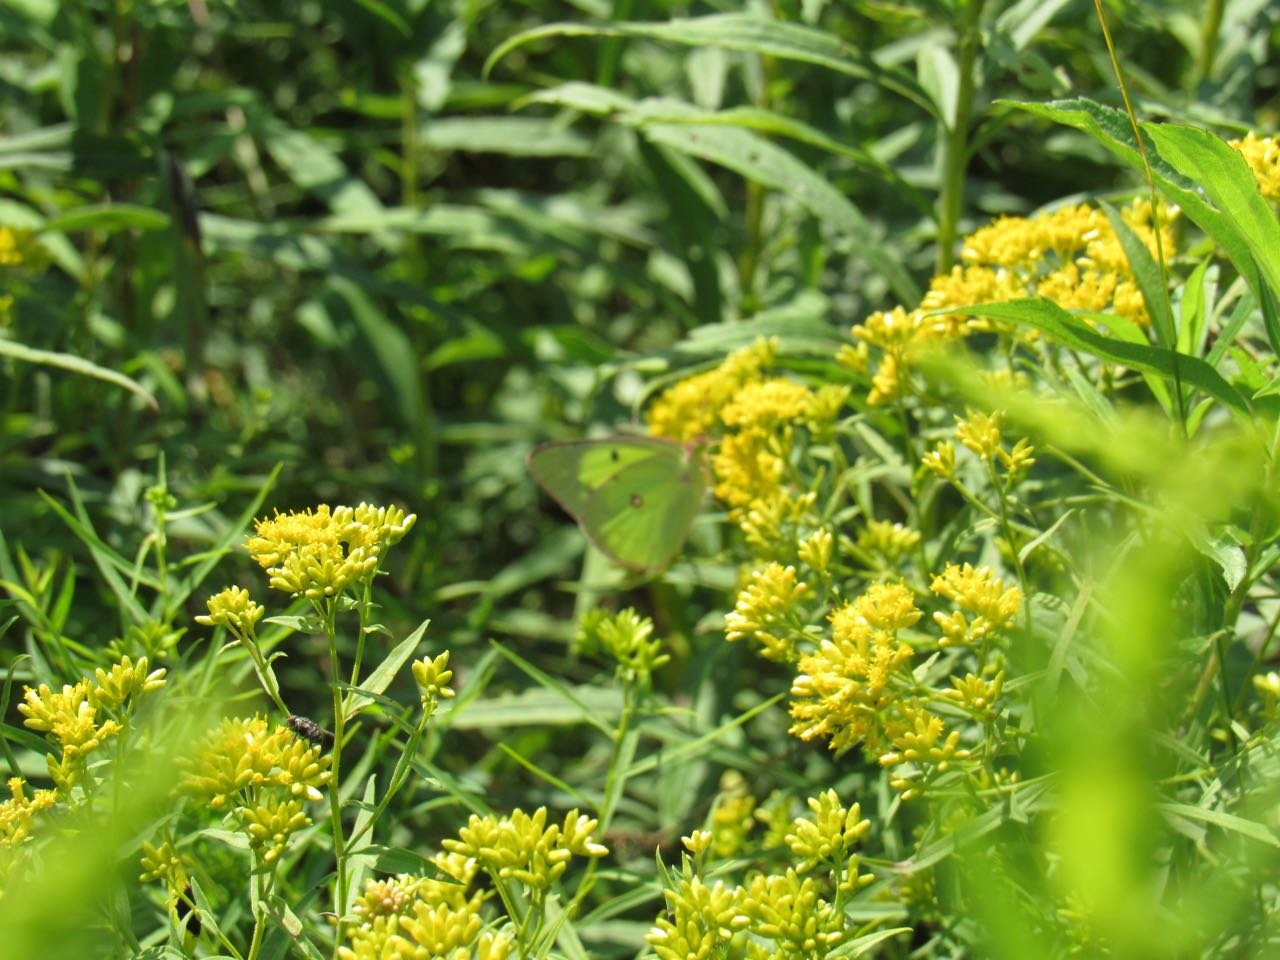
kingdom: Animalia
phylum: Arthropoda
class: Insecta
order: Lepidoptera
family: Pieridae
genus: Colias
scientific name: Colias philodice
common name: Clouded Sulphur
